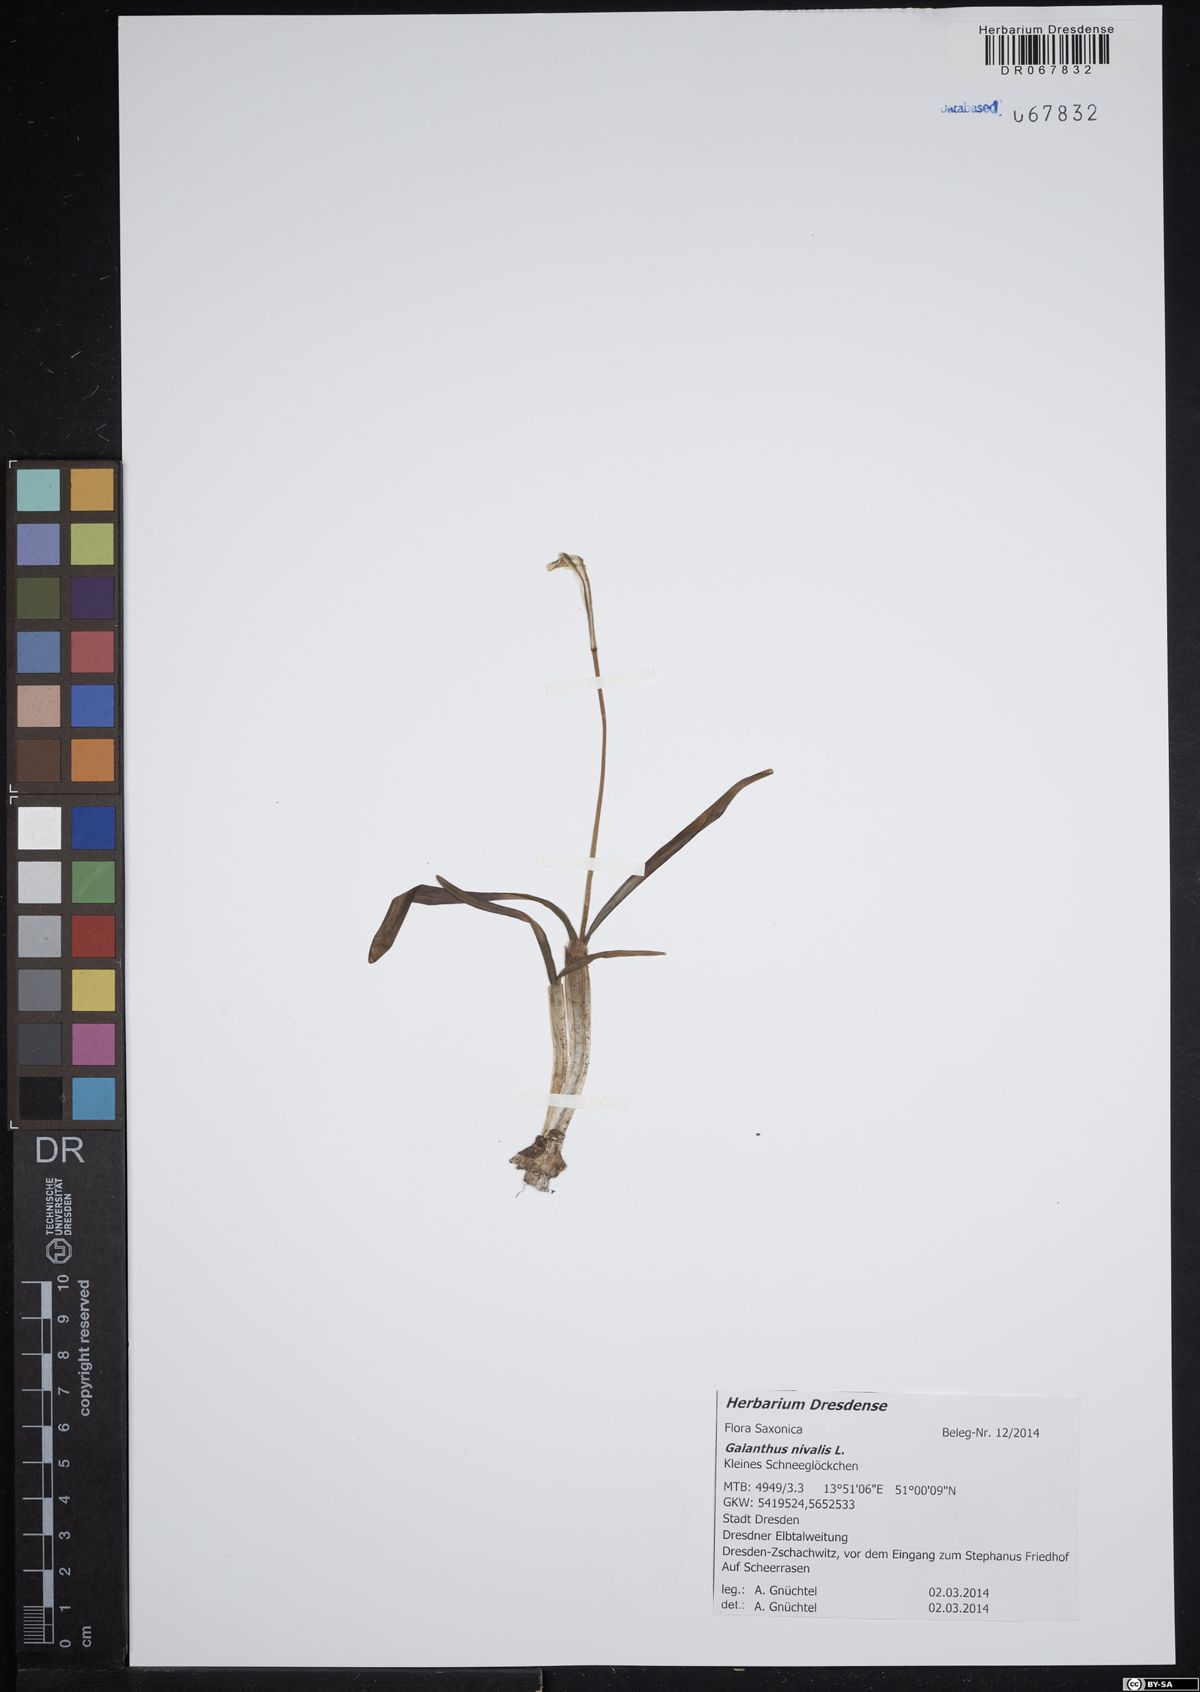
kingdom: Plantae
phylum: Tracheophyta
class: Liliopsida
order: Asparagales
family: Amaryllidaceae
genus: Galanthus
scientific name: Galanthus nivalis
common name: Snowdrop
